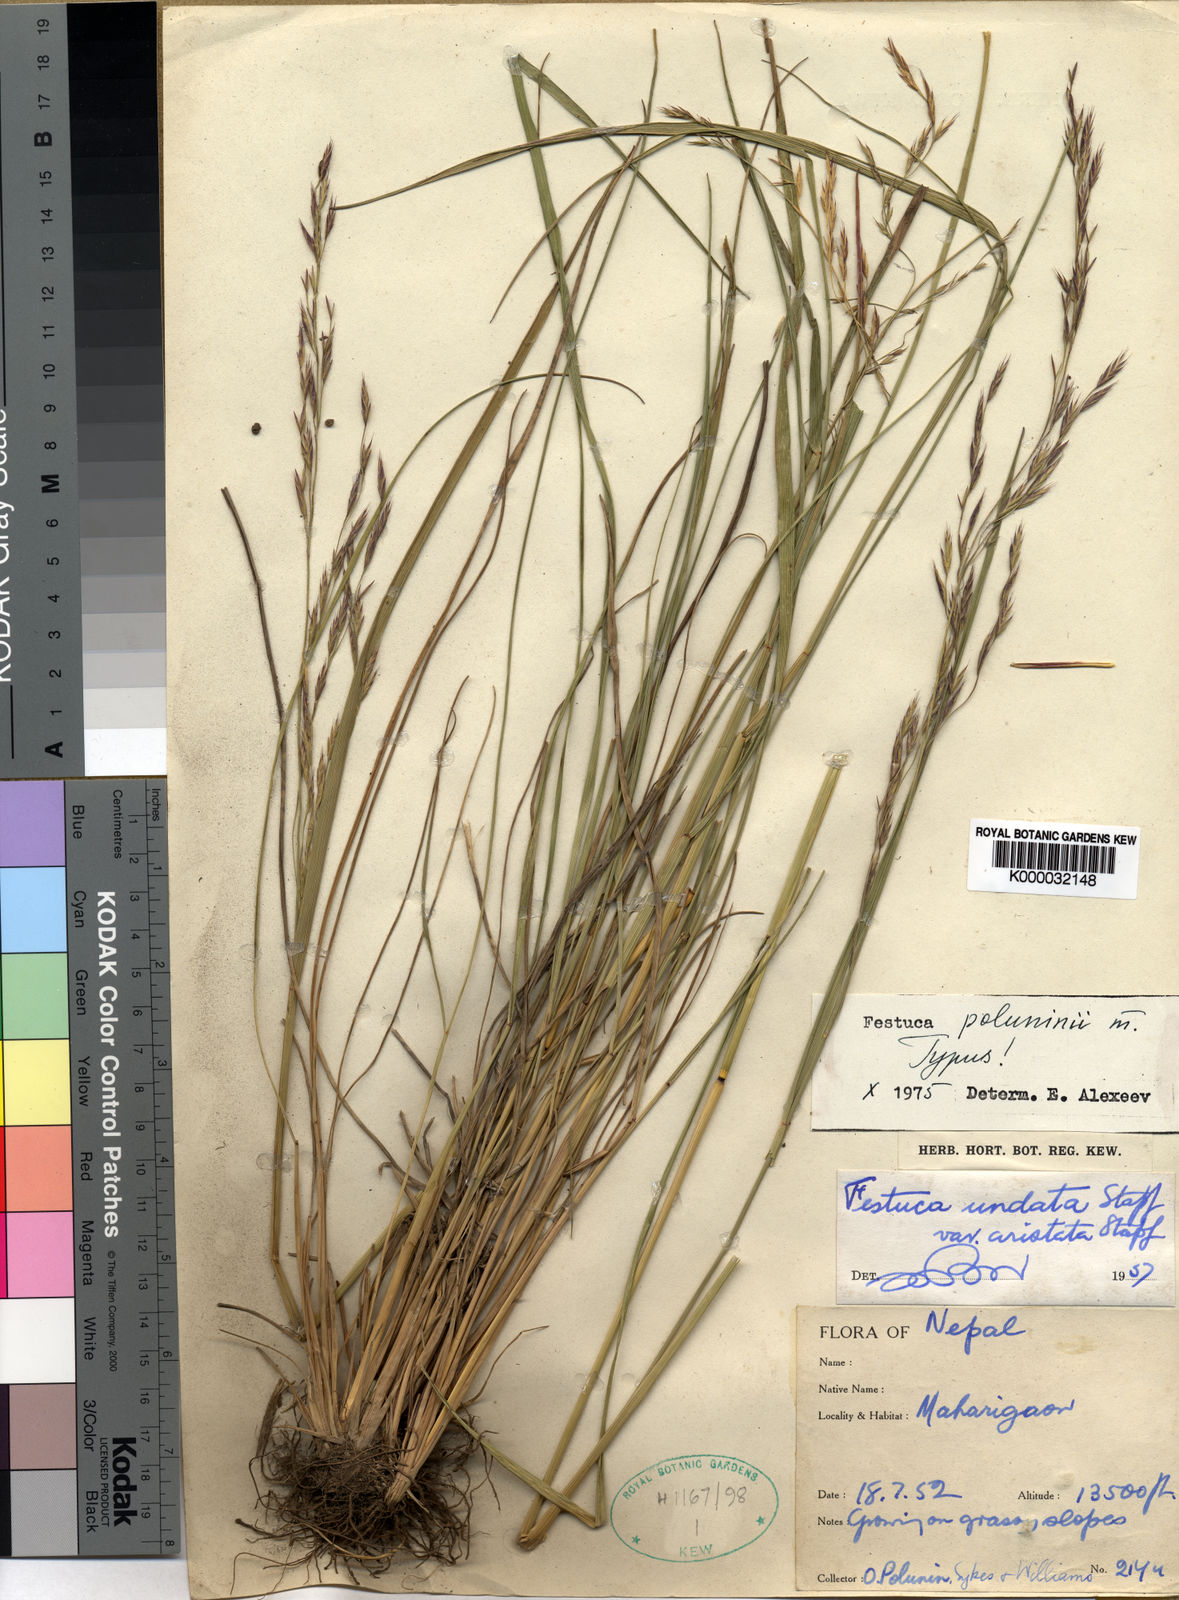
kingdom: Plantae
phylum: Tracheophyta
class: Liliopsida
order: Poales
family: Poaceae
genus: Festuca
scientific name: Festuca poluninii
